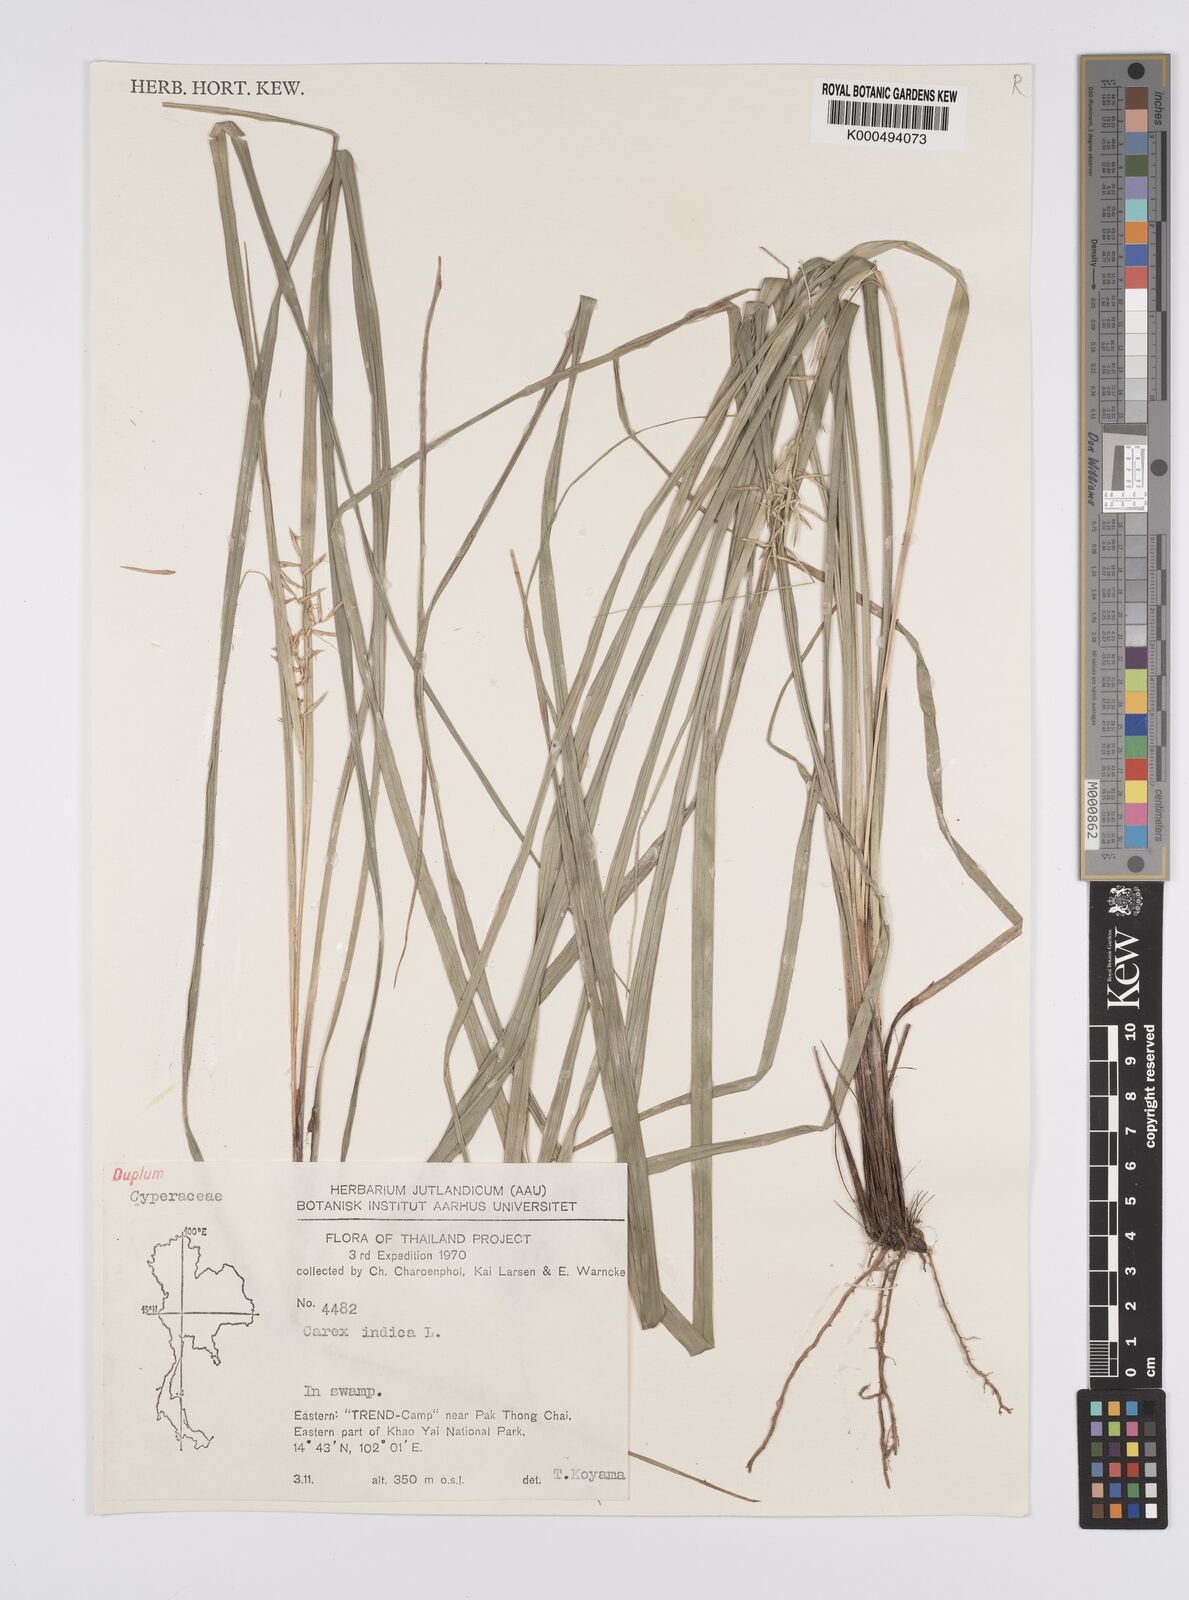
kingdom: Plantae
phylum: Tracheophyta
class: Liliopsida
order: Poales
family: Cyperaceae
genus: Carex
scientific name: Carex indica
